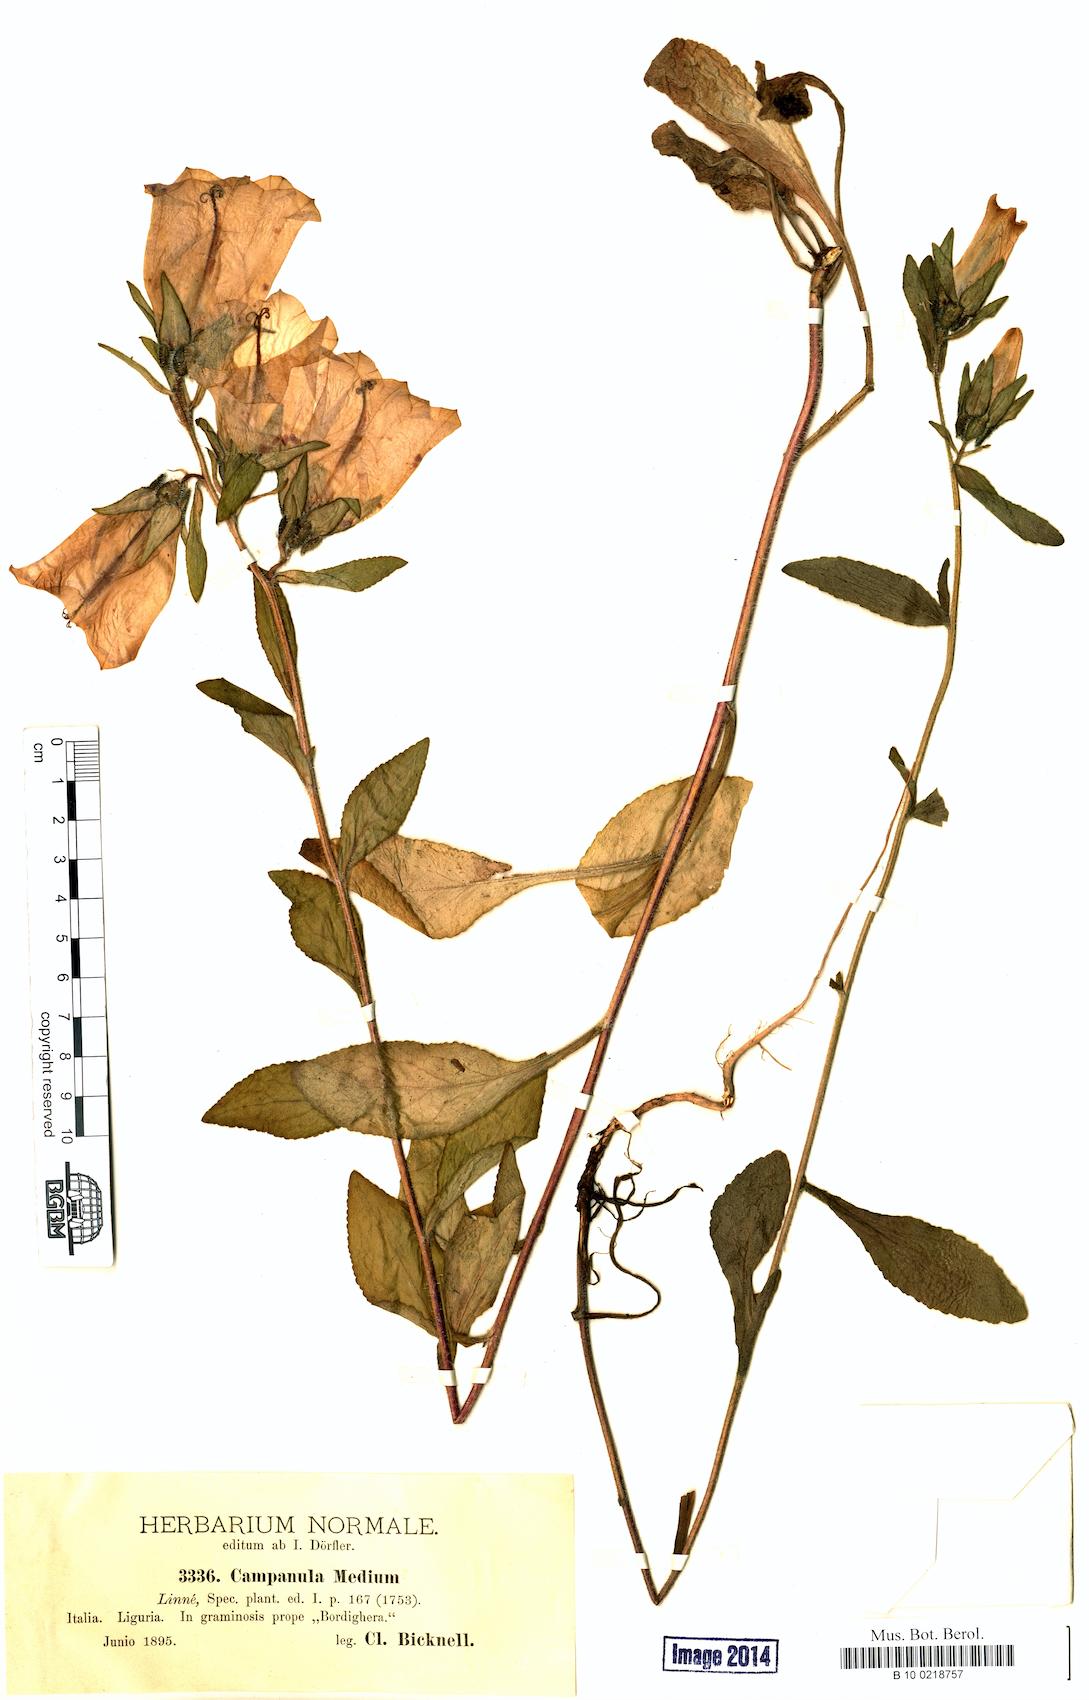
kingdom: Plantae
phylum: Tracheophyta
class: Magnoliopsida
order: Asterales
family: Campanulaceae
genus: Campanula
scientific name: Campanula medium
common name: Canterbury bells
